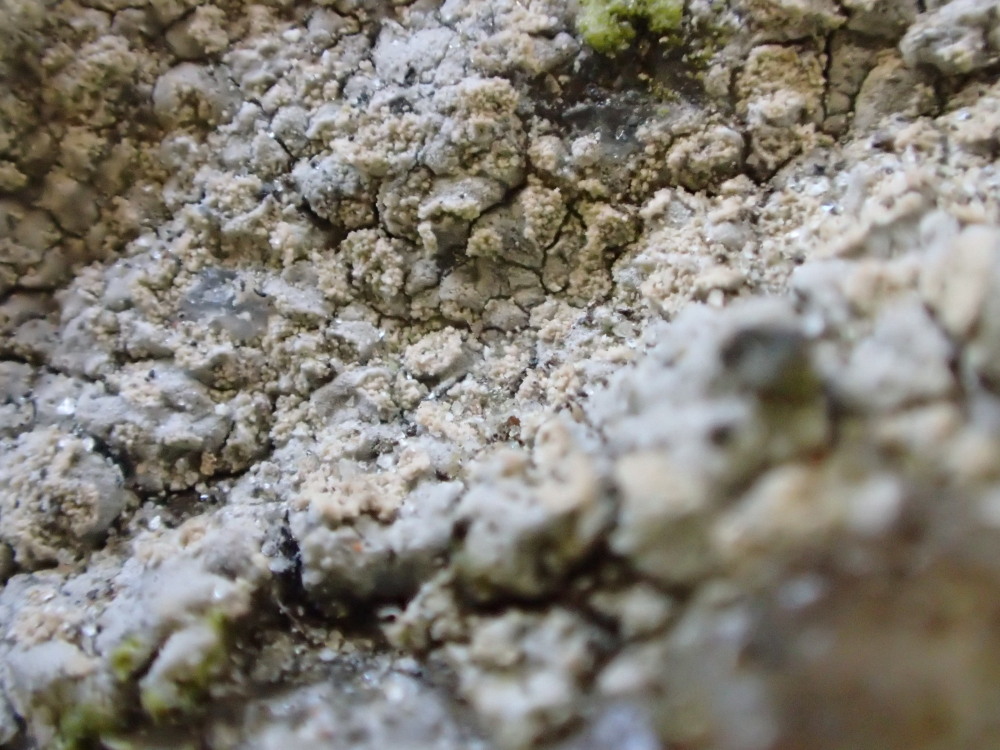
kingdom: Fungi
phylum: Ascomycota
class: Lecanoromycetes
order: Baeomycetales
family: Trapeliaceae
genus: Kleopowiella
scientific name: Kleopowiella placodioides
